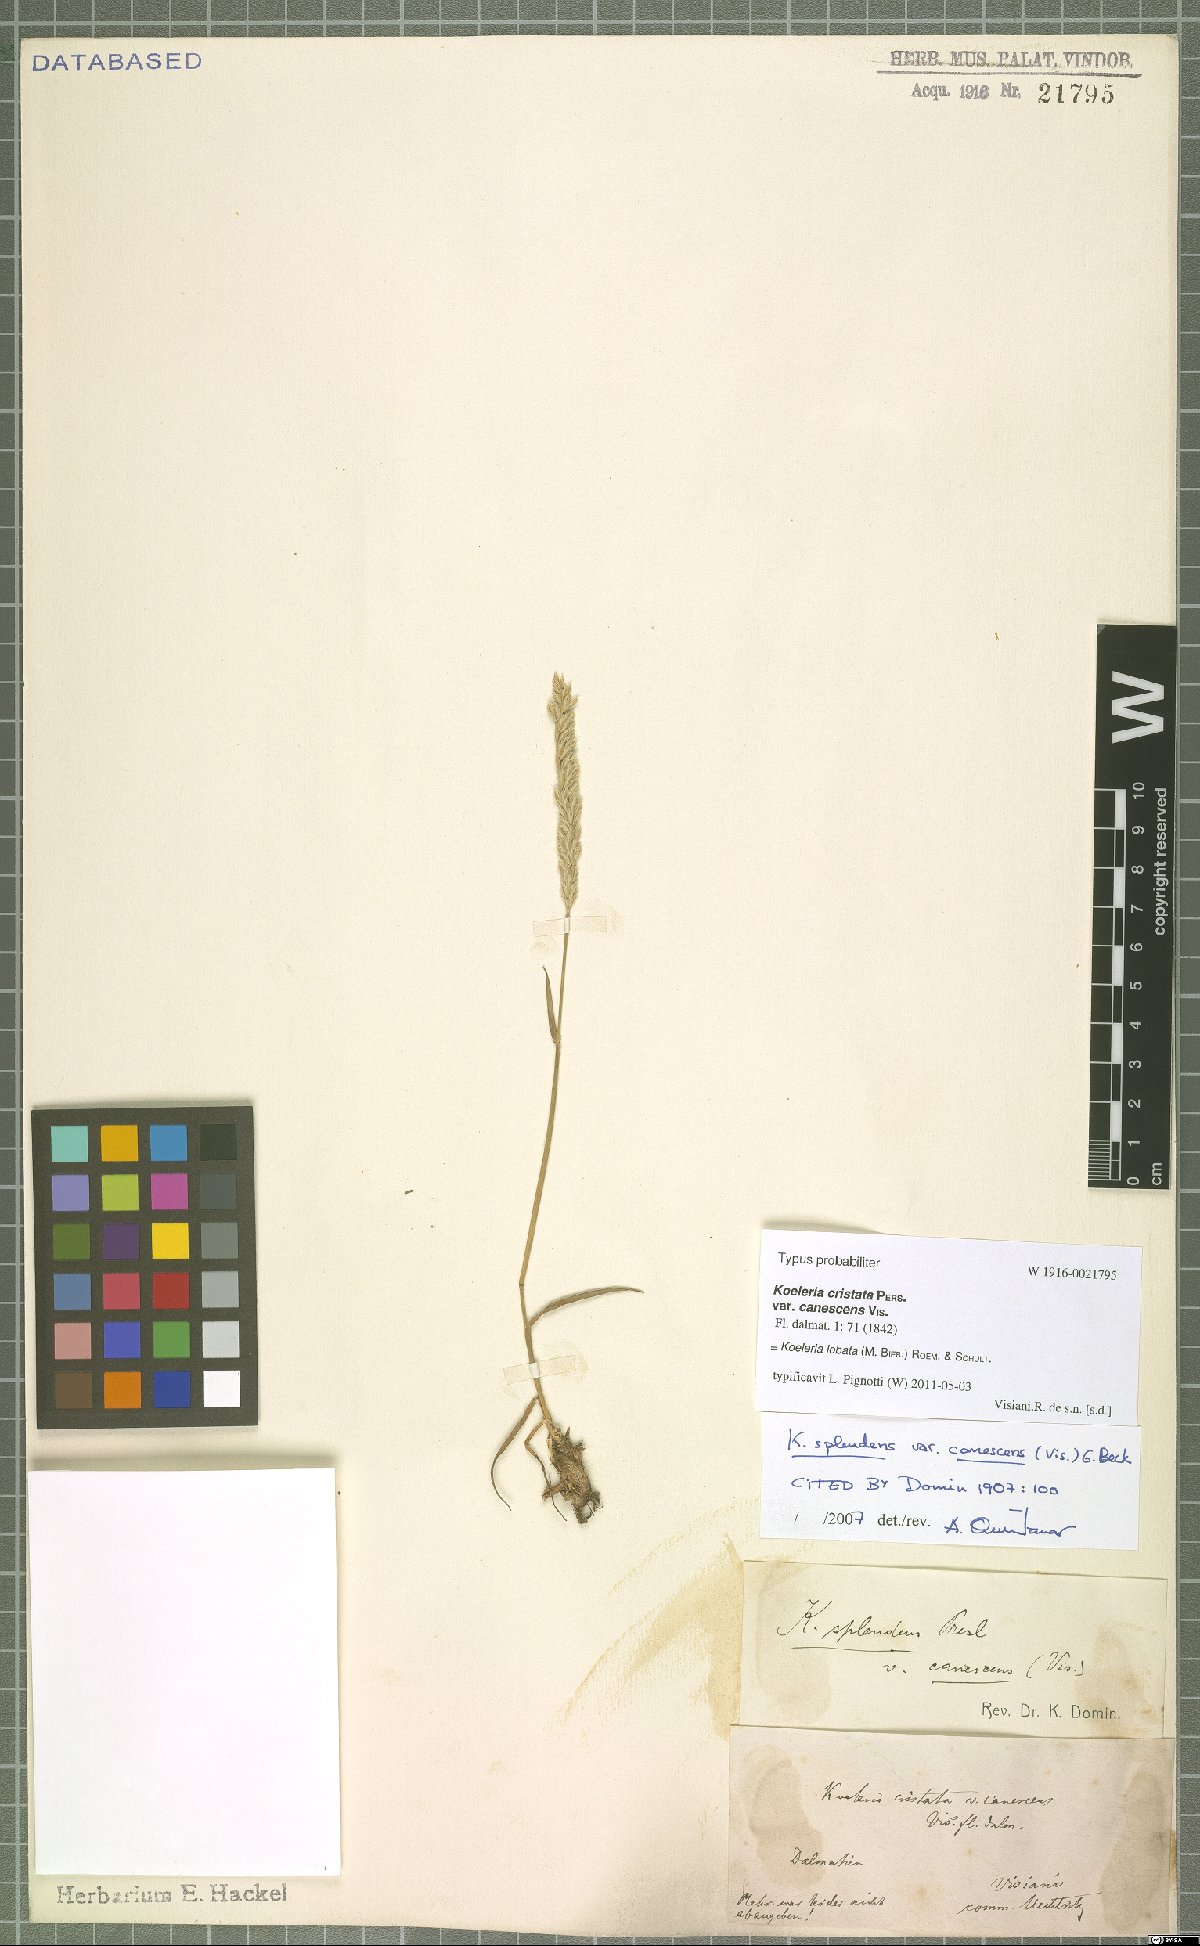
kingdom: Plantae
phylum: Tracheophyta
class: Liliopsida
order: Poales
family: Poaceae
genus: Koeleria
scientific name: Koeleria brevis
